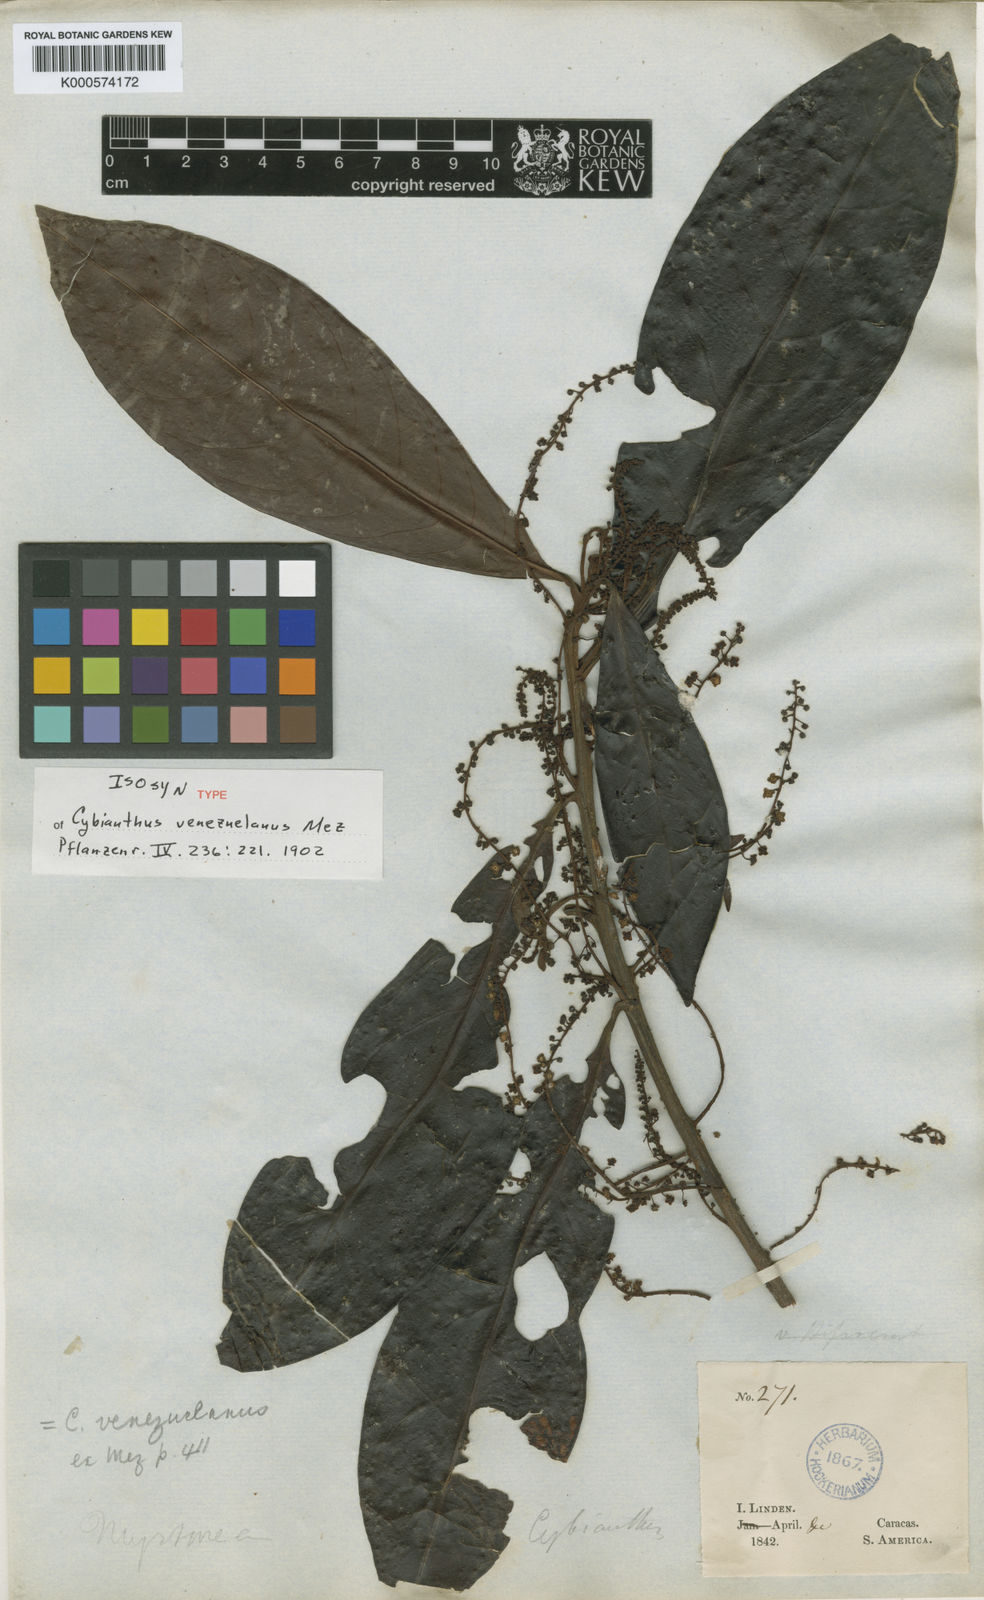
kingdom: Plantae
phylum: Tracheophyta
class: Magnoliopsida
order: Ericales
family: Primulaceae
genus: Cybianthus
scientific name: Cybianthus venezuelanus
